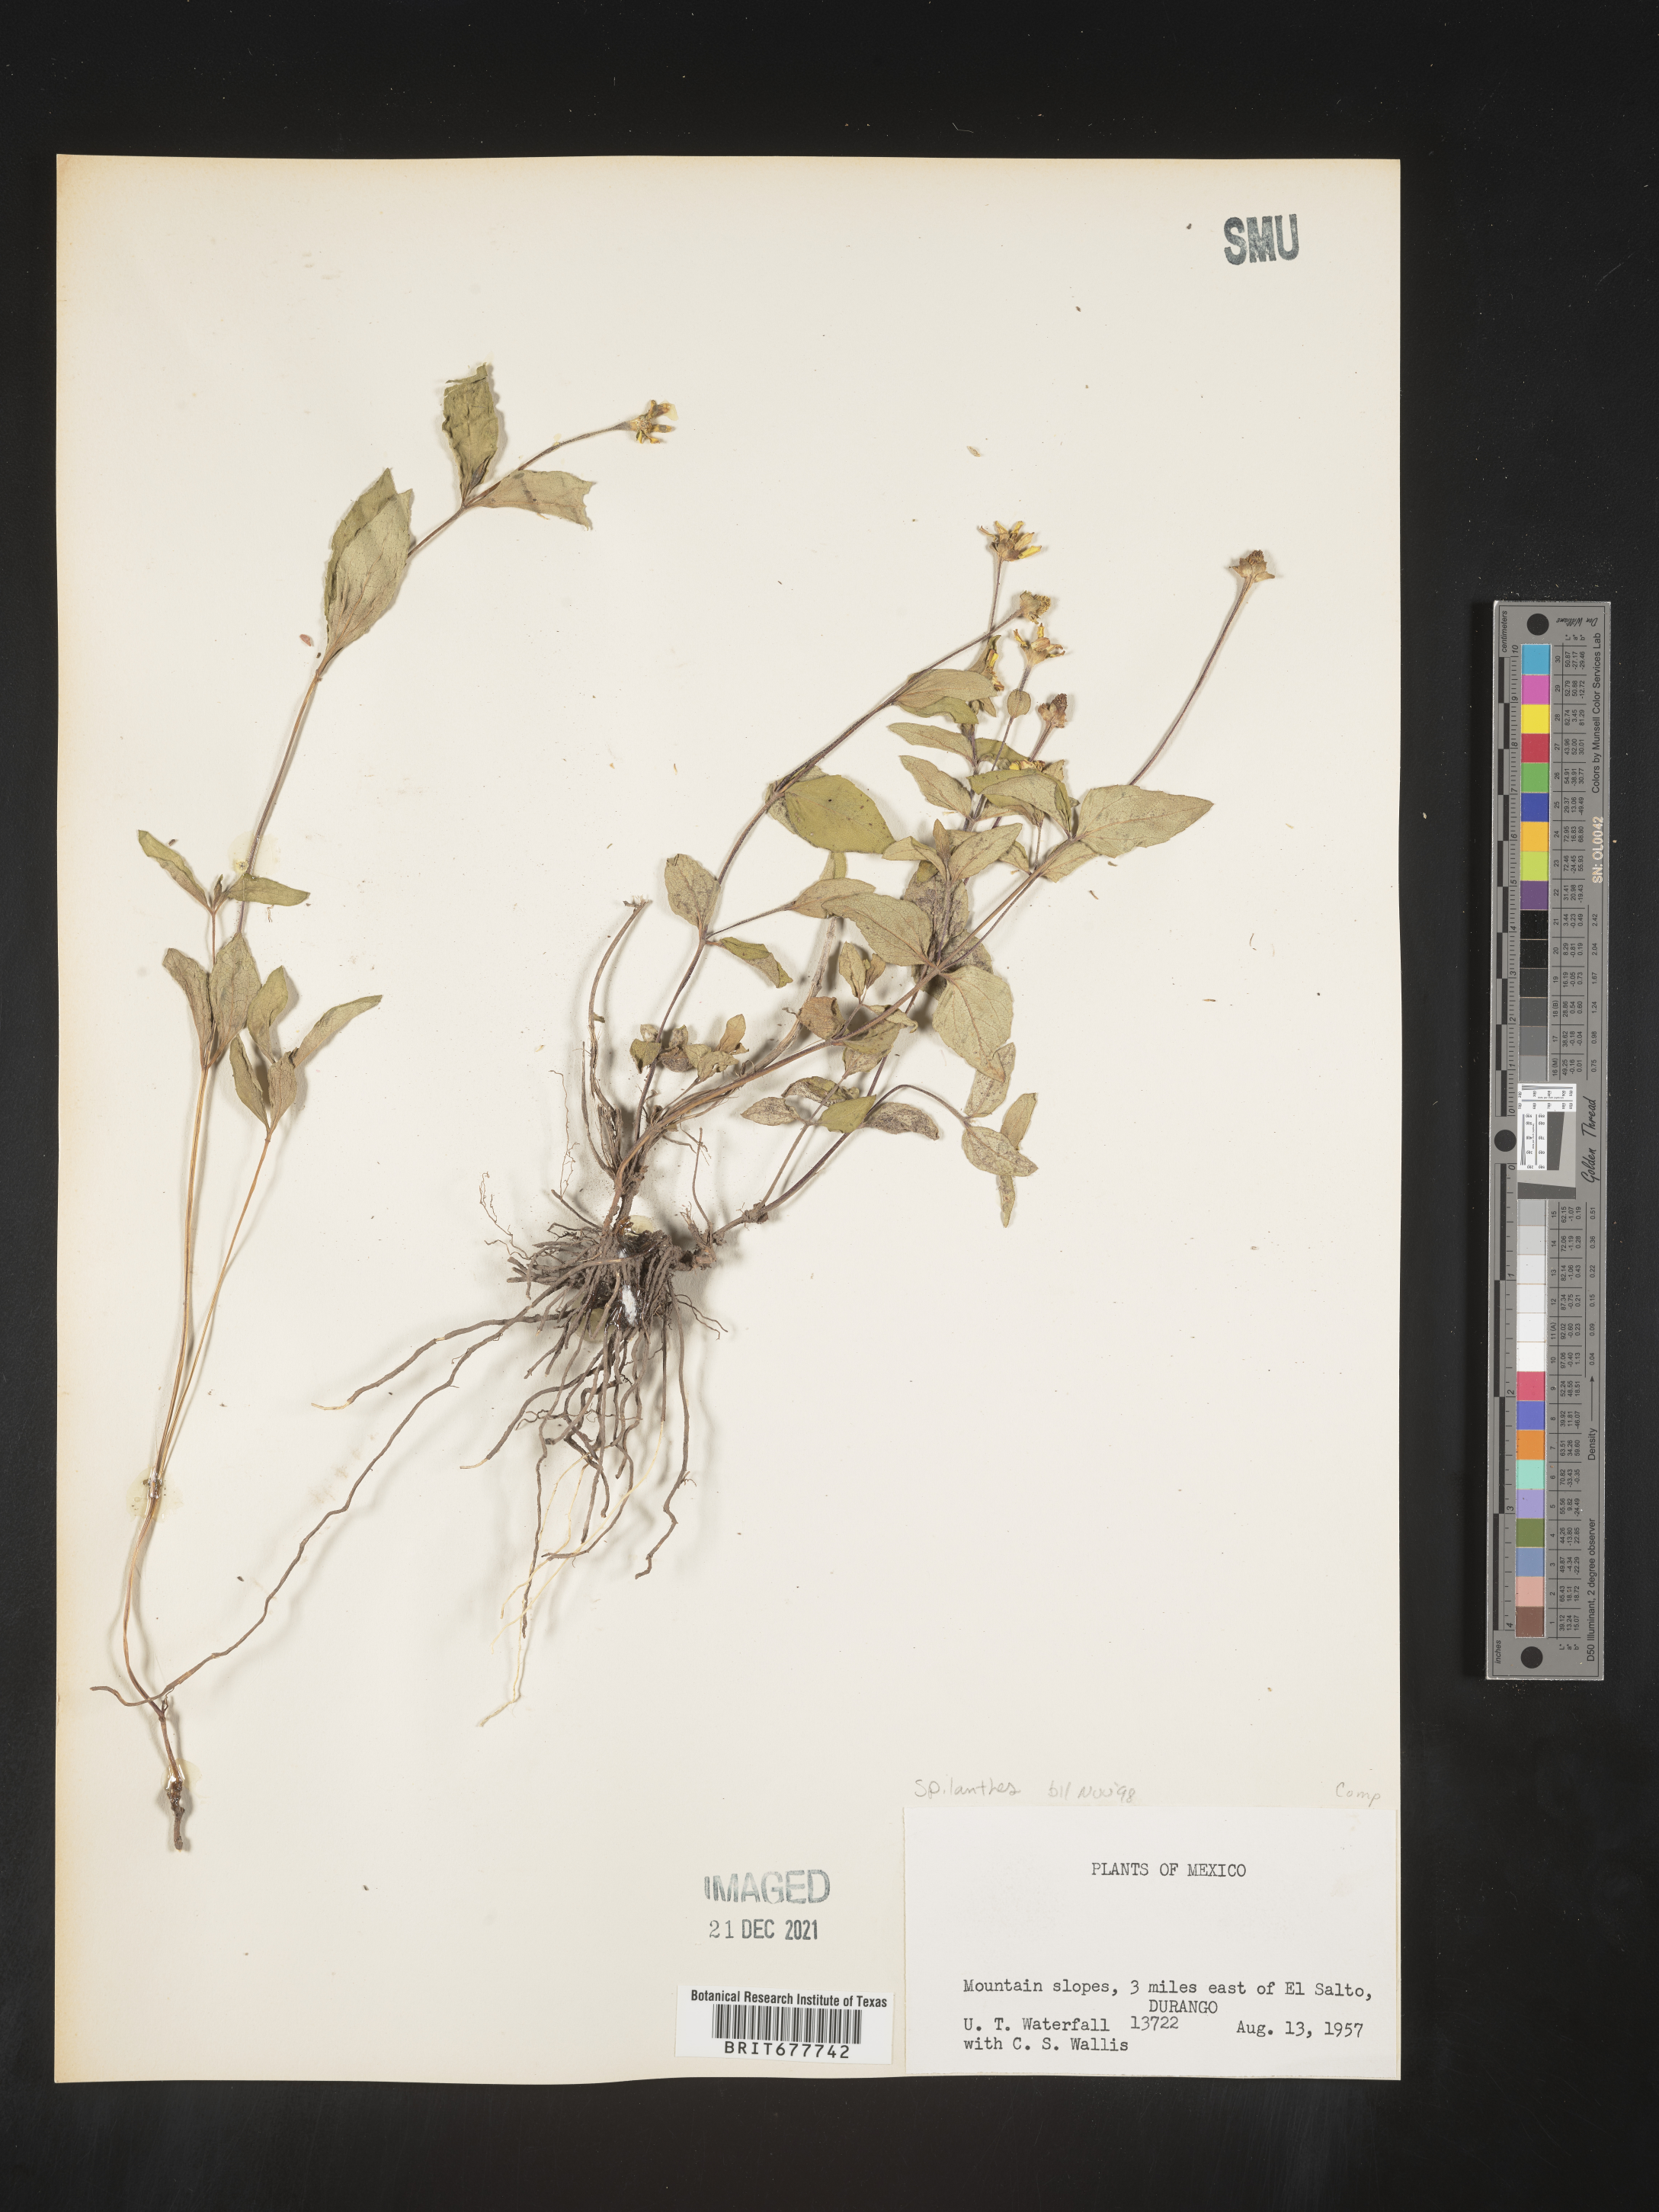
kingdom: Plantae
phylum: Tracheophyta
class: Magnoliopsida
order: Asterales
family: Asteraceae
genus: Spilanthes
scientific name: Spilanthes
